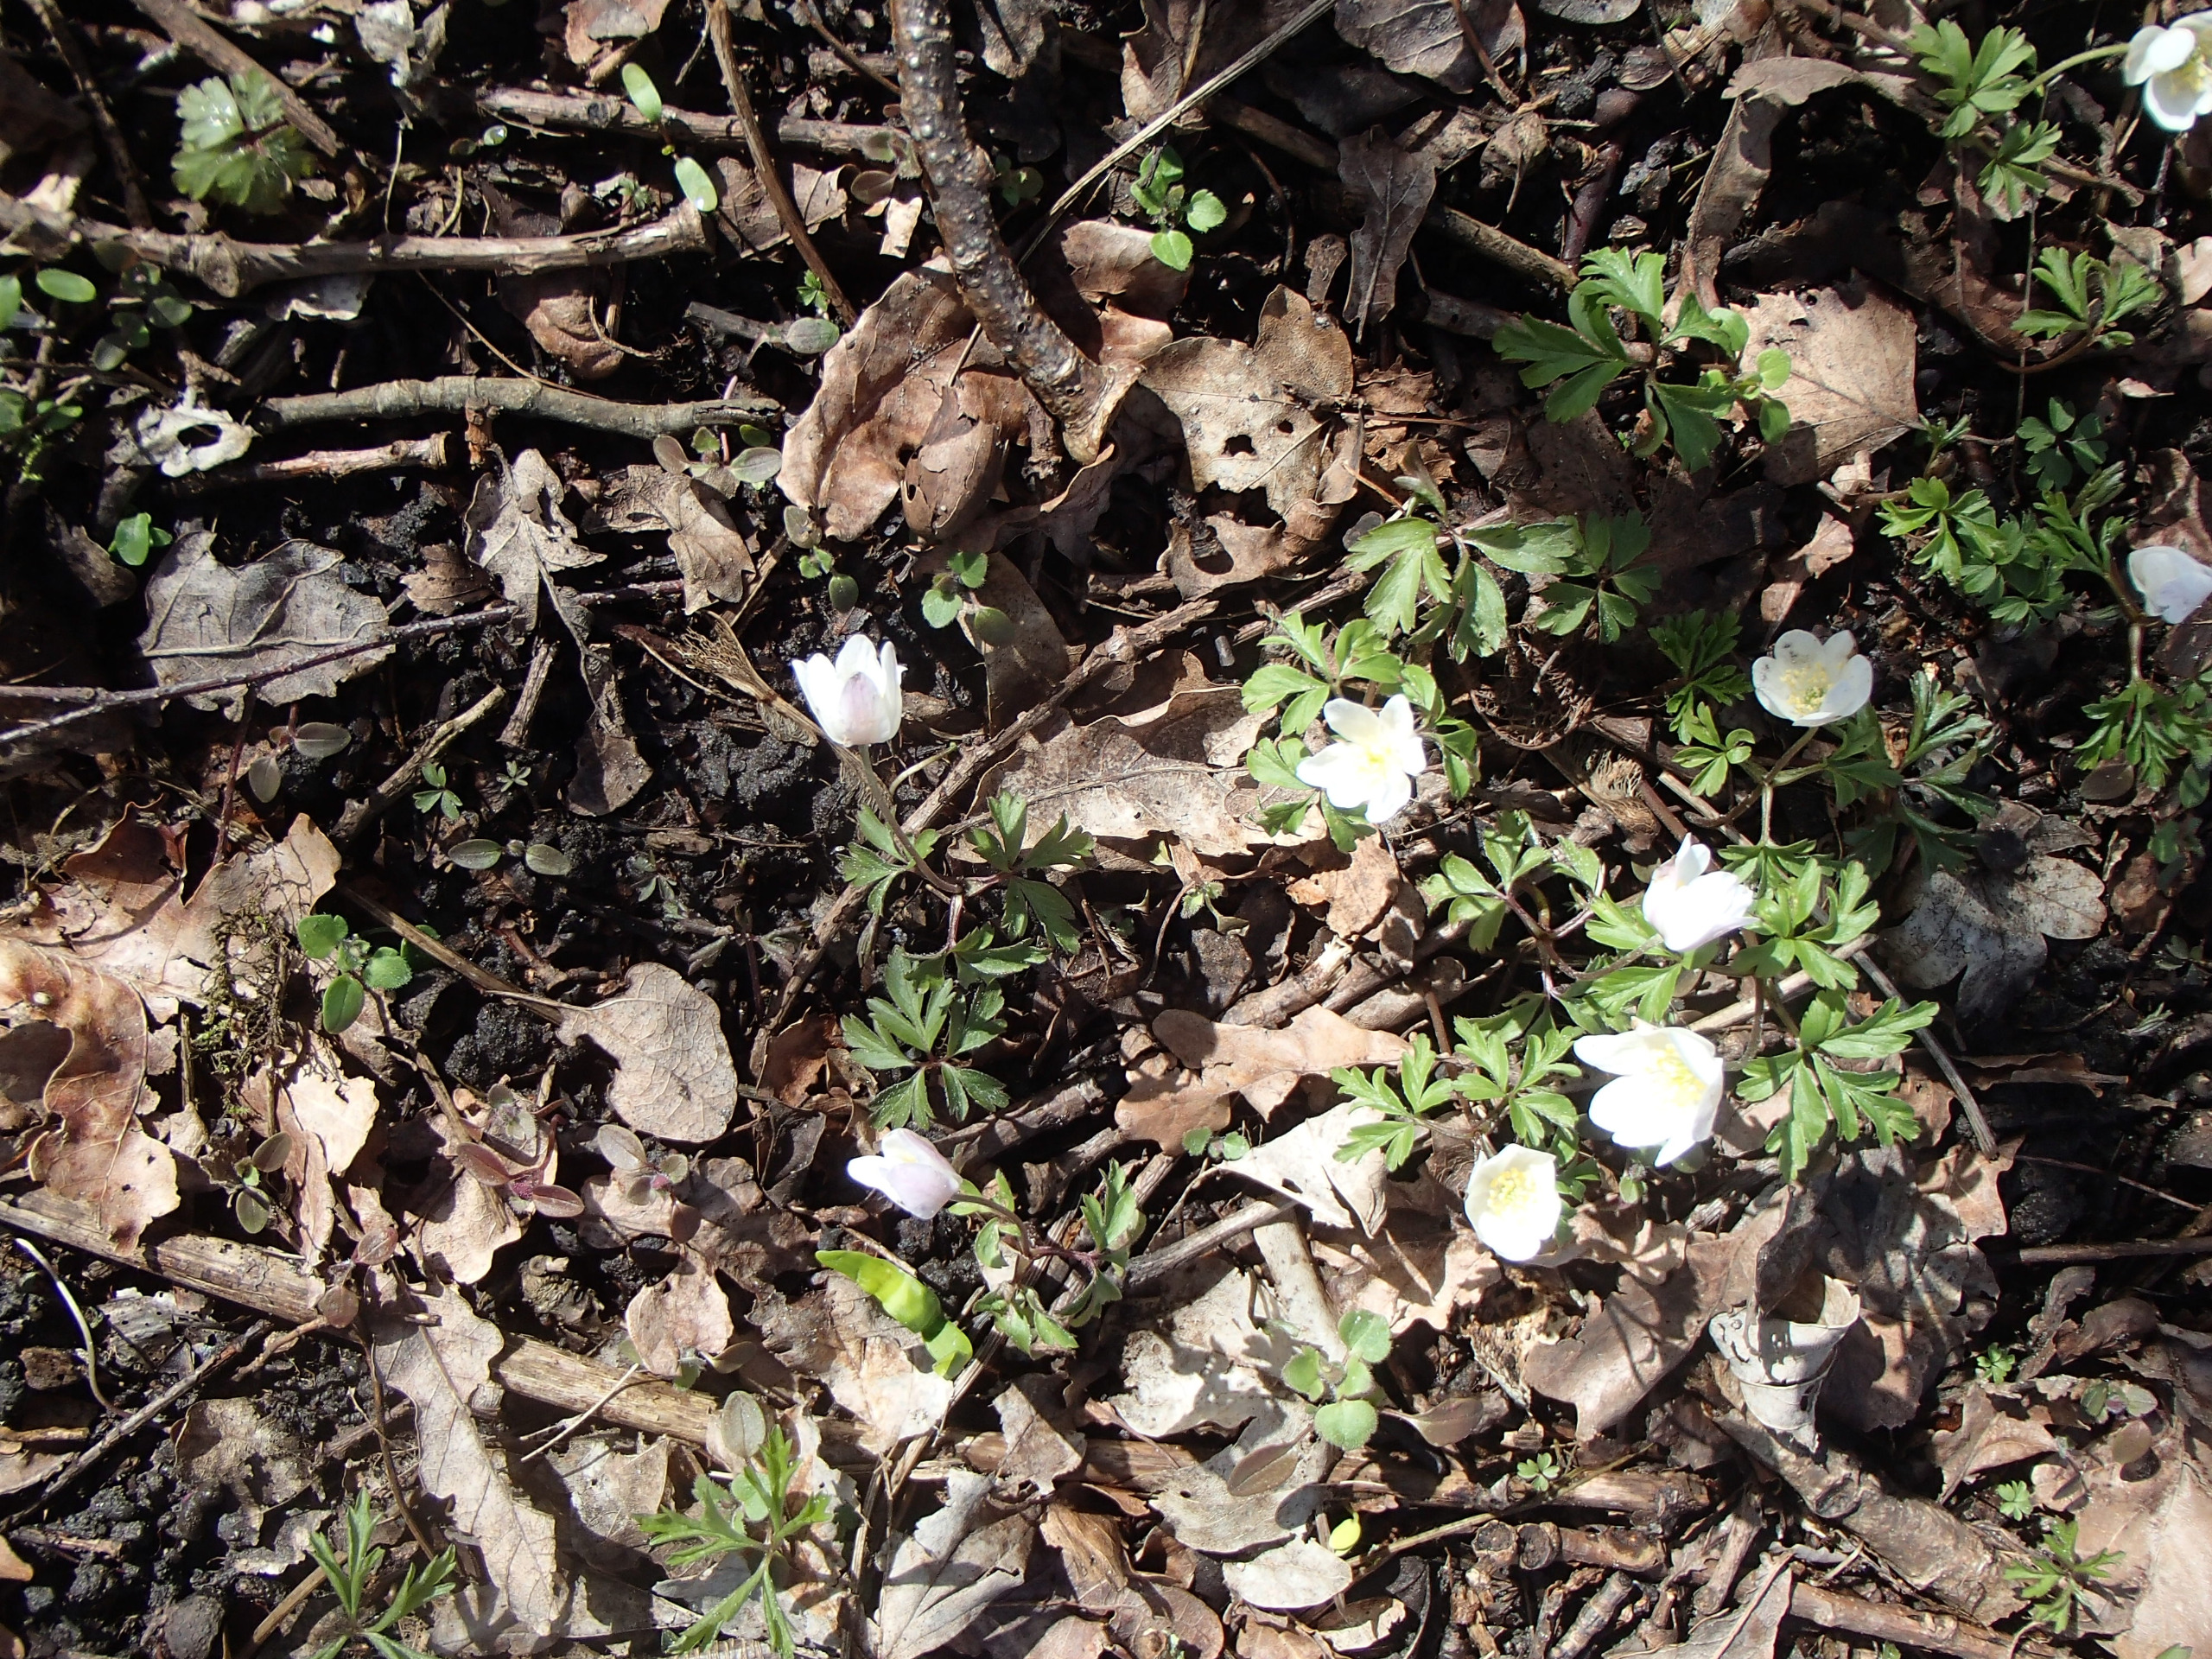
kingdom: Plantae
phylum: Tracheophyta
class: Magnoliopsida
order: Ranunculales
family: Ranunculaceae
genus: Anemone
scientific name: Anemone nemorosa
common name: Hvid anemone
